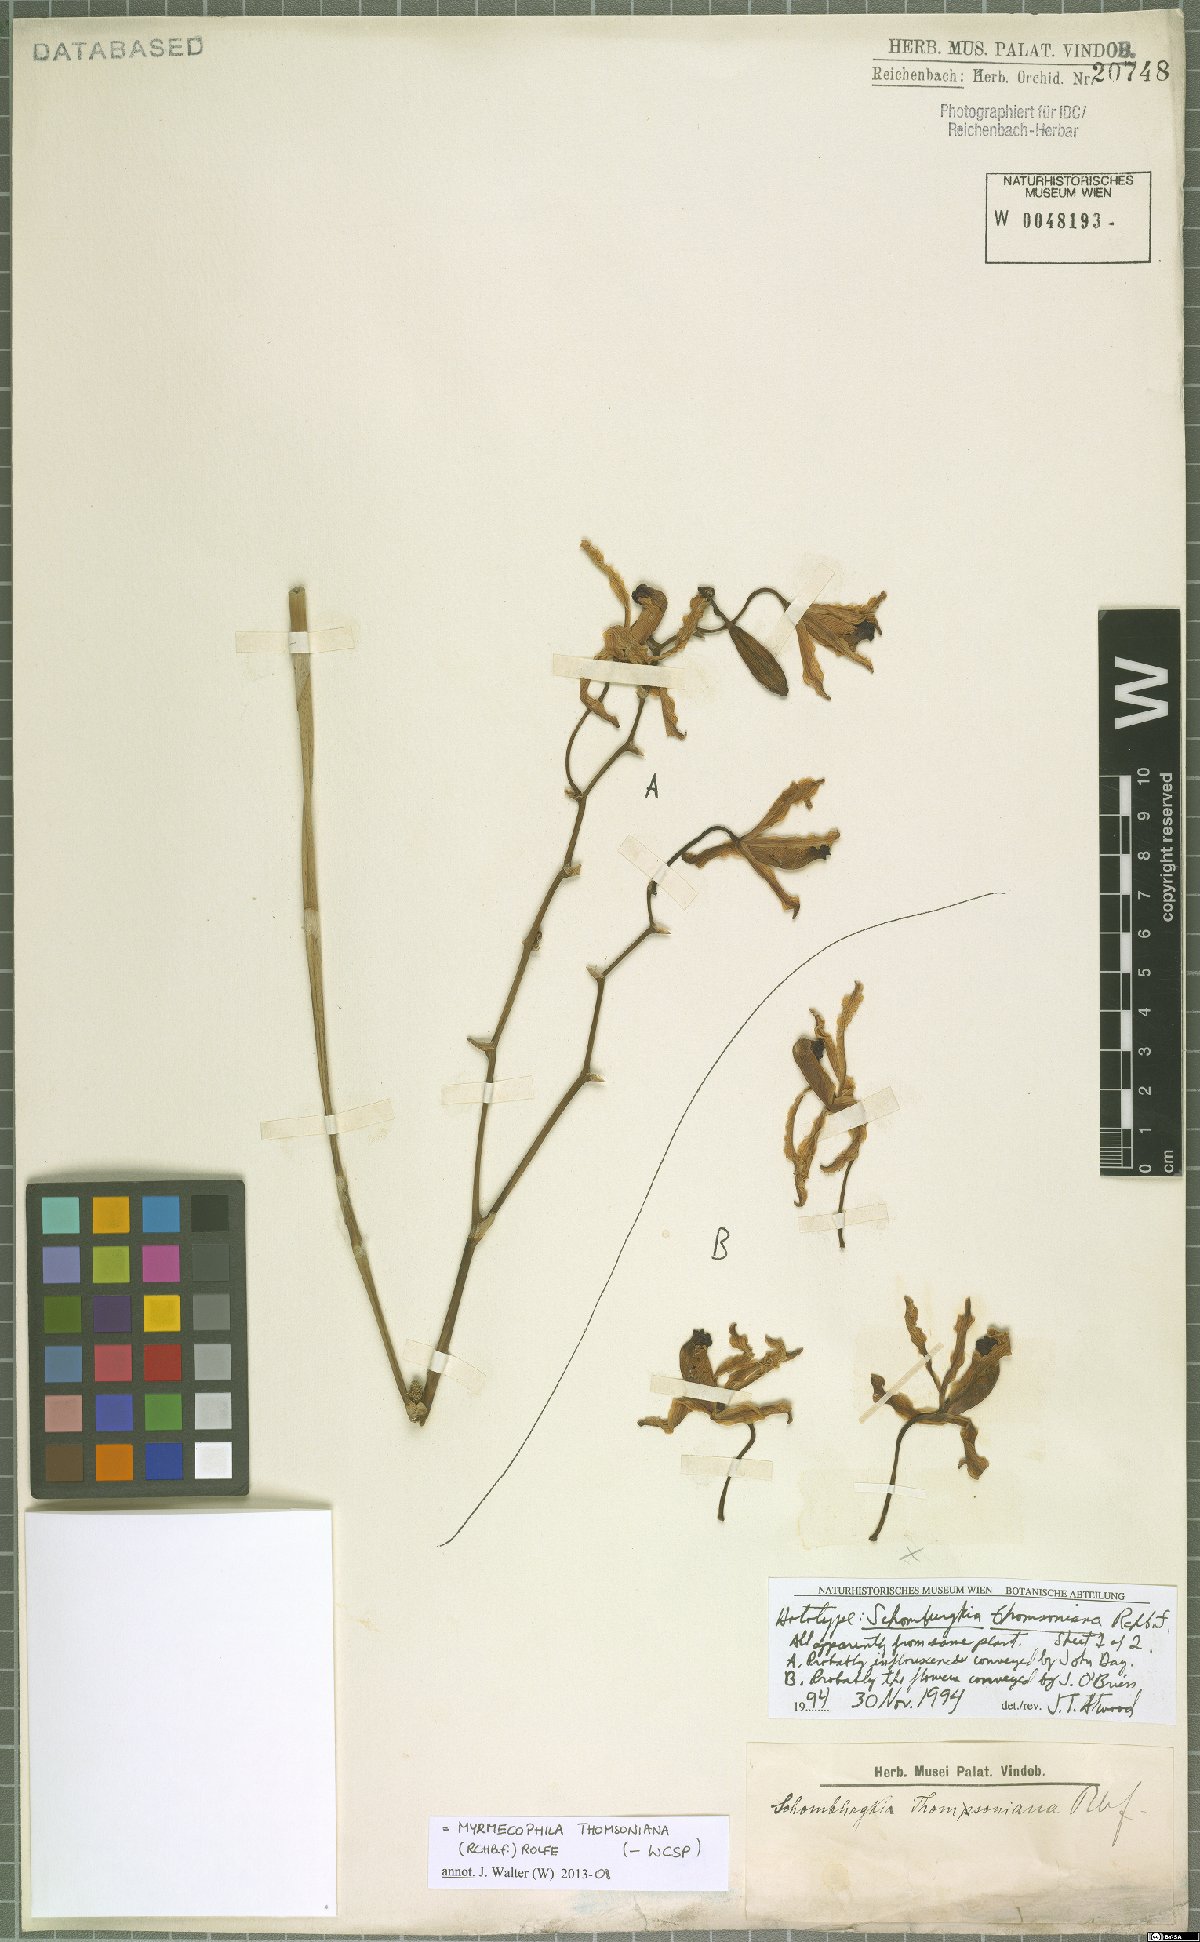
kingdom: Plantae
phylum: Tracheophyta
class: Liliopsida
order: Asparagales
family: Orchidaceae
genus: Myrmecophila
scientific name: Myrmecophila thomsoniana
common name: Banana orchid
